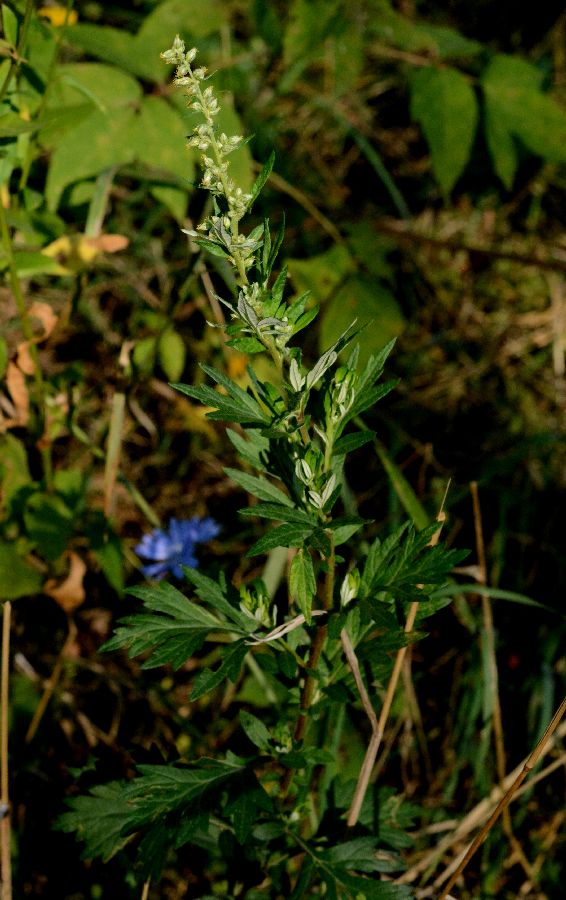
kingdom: Plantae
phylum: Tracheophyta
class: Magnoliopsida
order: Asterales
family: Asteraceae
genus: Artemisia
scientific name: Artemisia vulgaris
